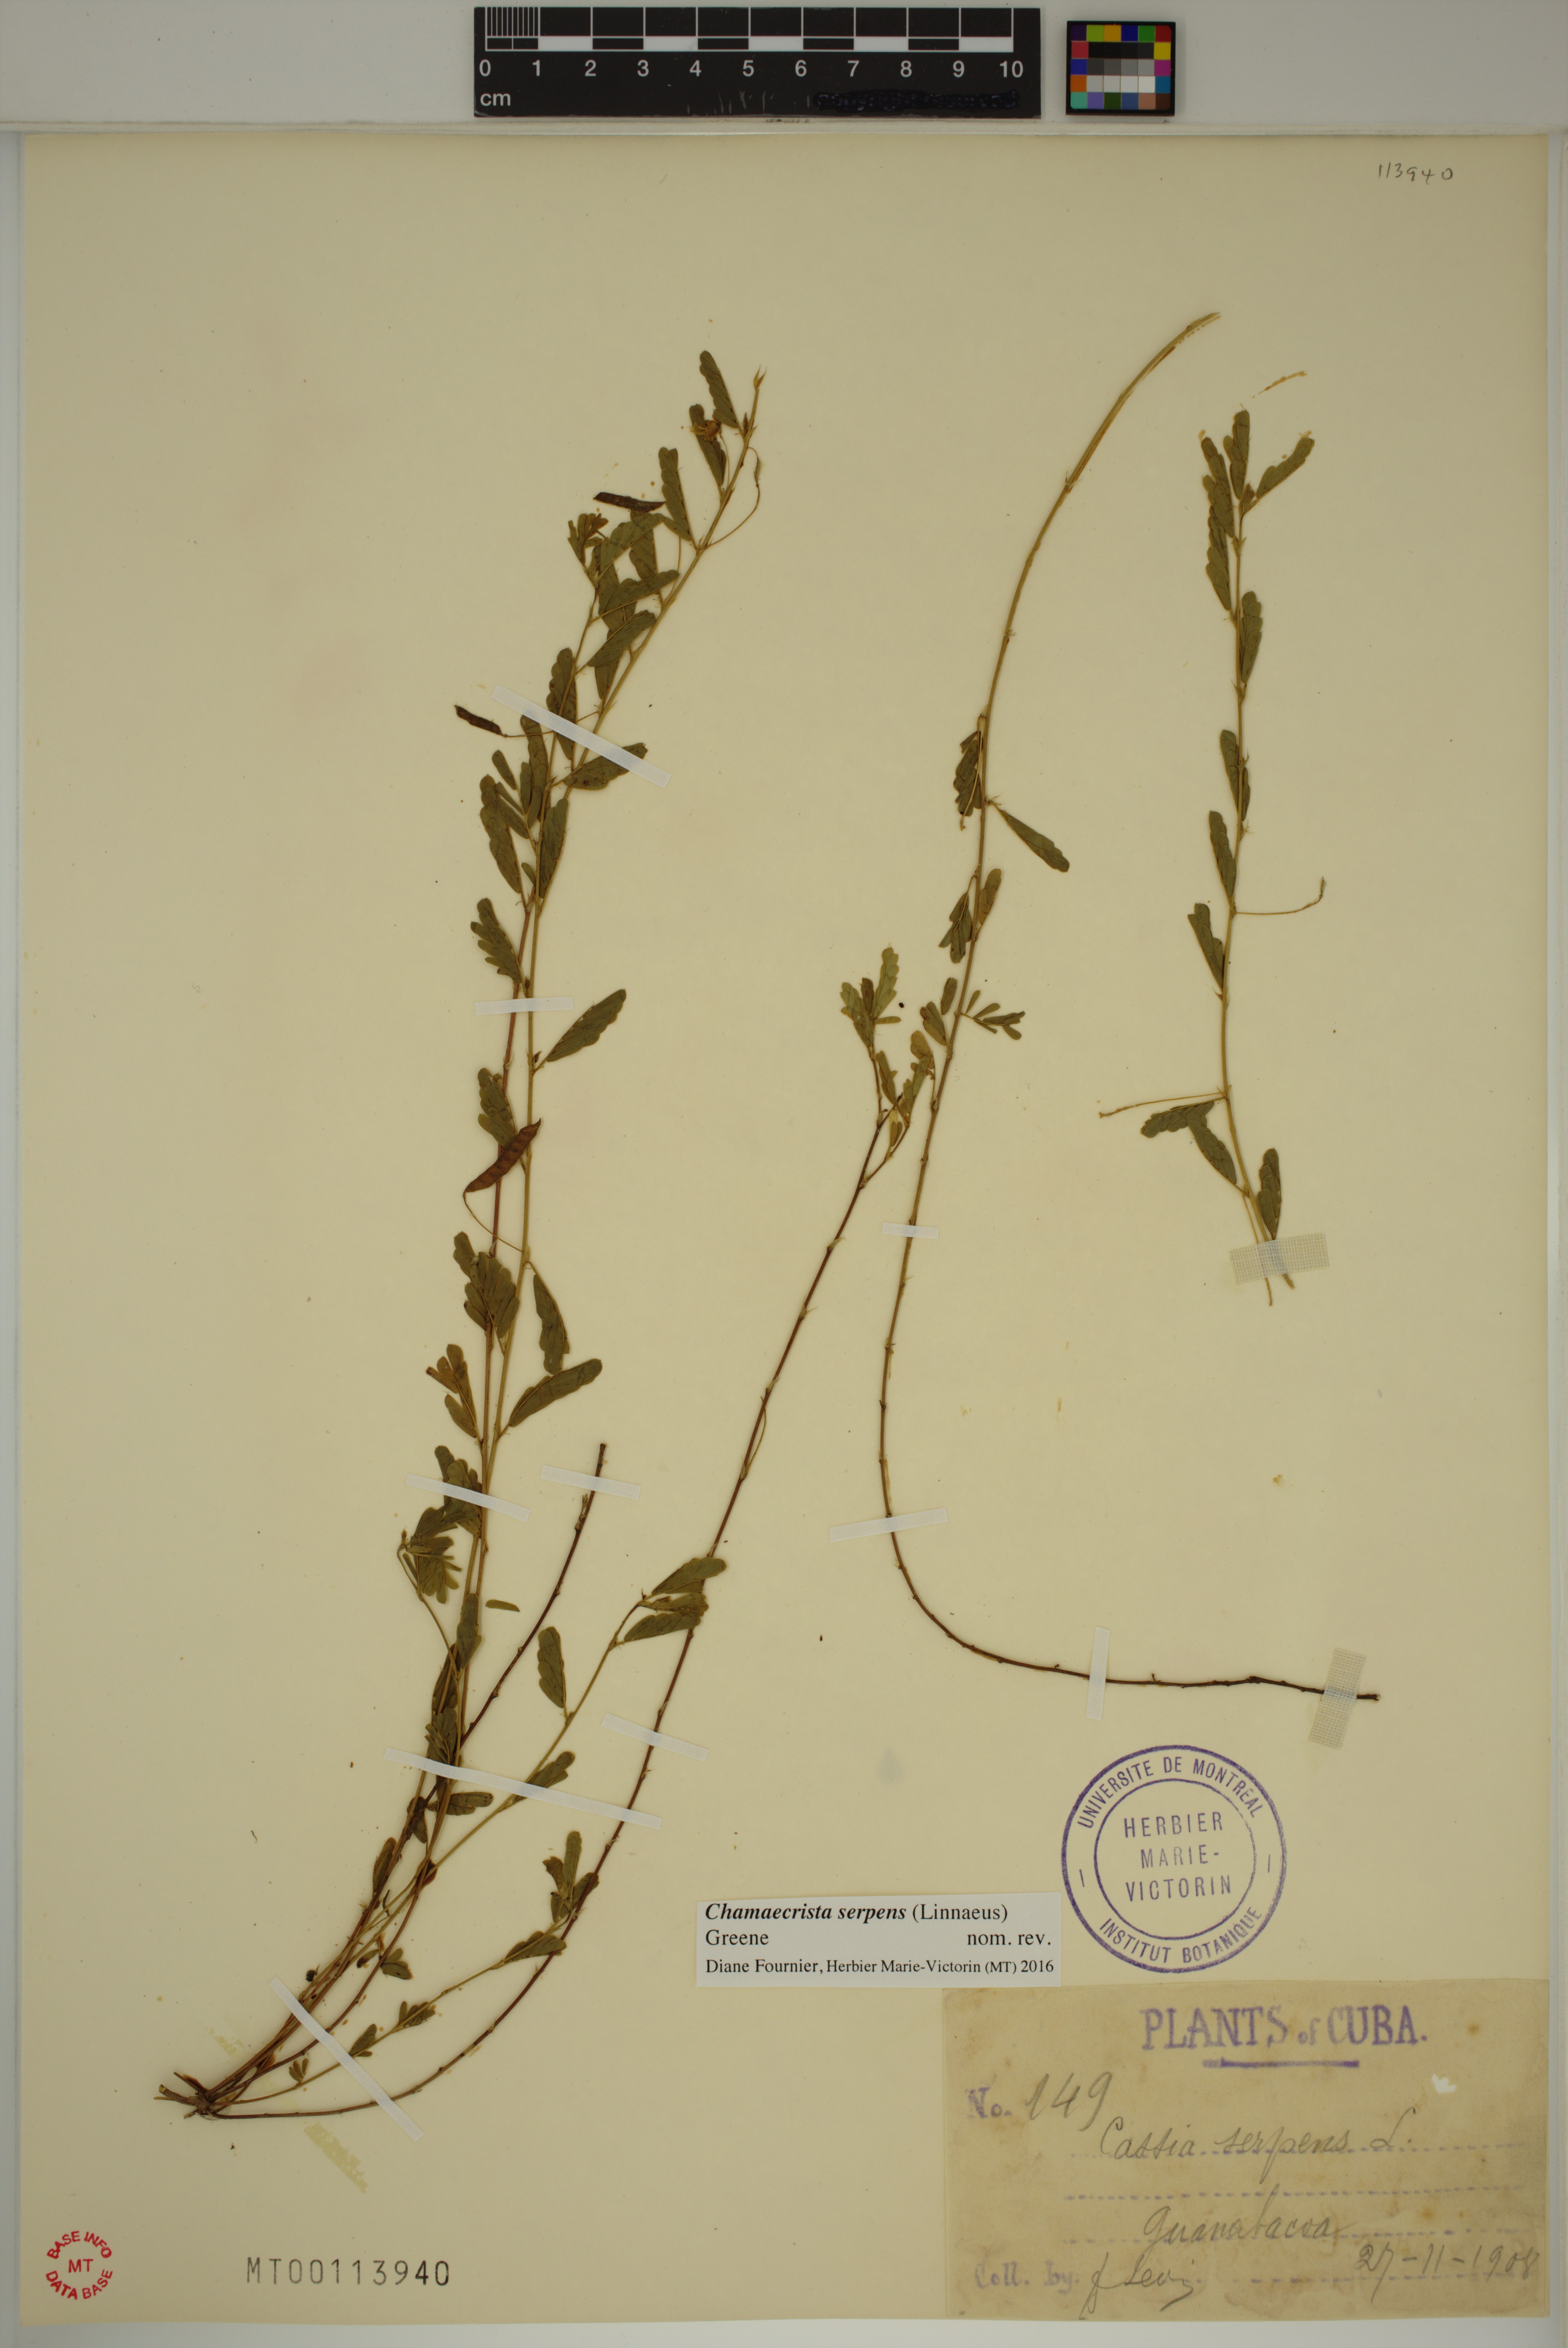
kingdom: Plantae
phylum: Tracheophyta
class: Magnoliopsida
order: Fabales
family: Fabaceae
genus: Chamaecrista
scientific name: Chamaecrista serpens
